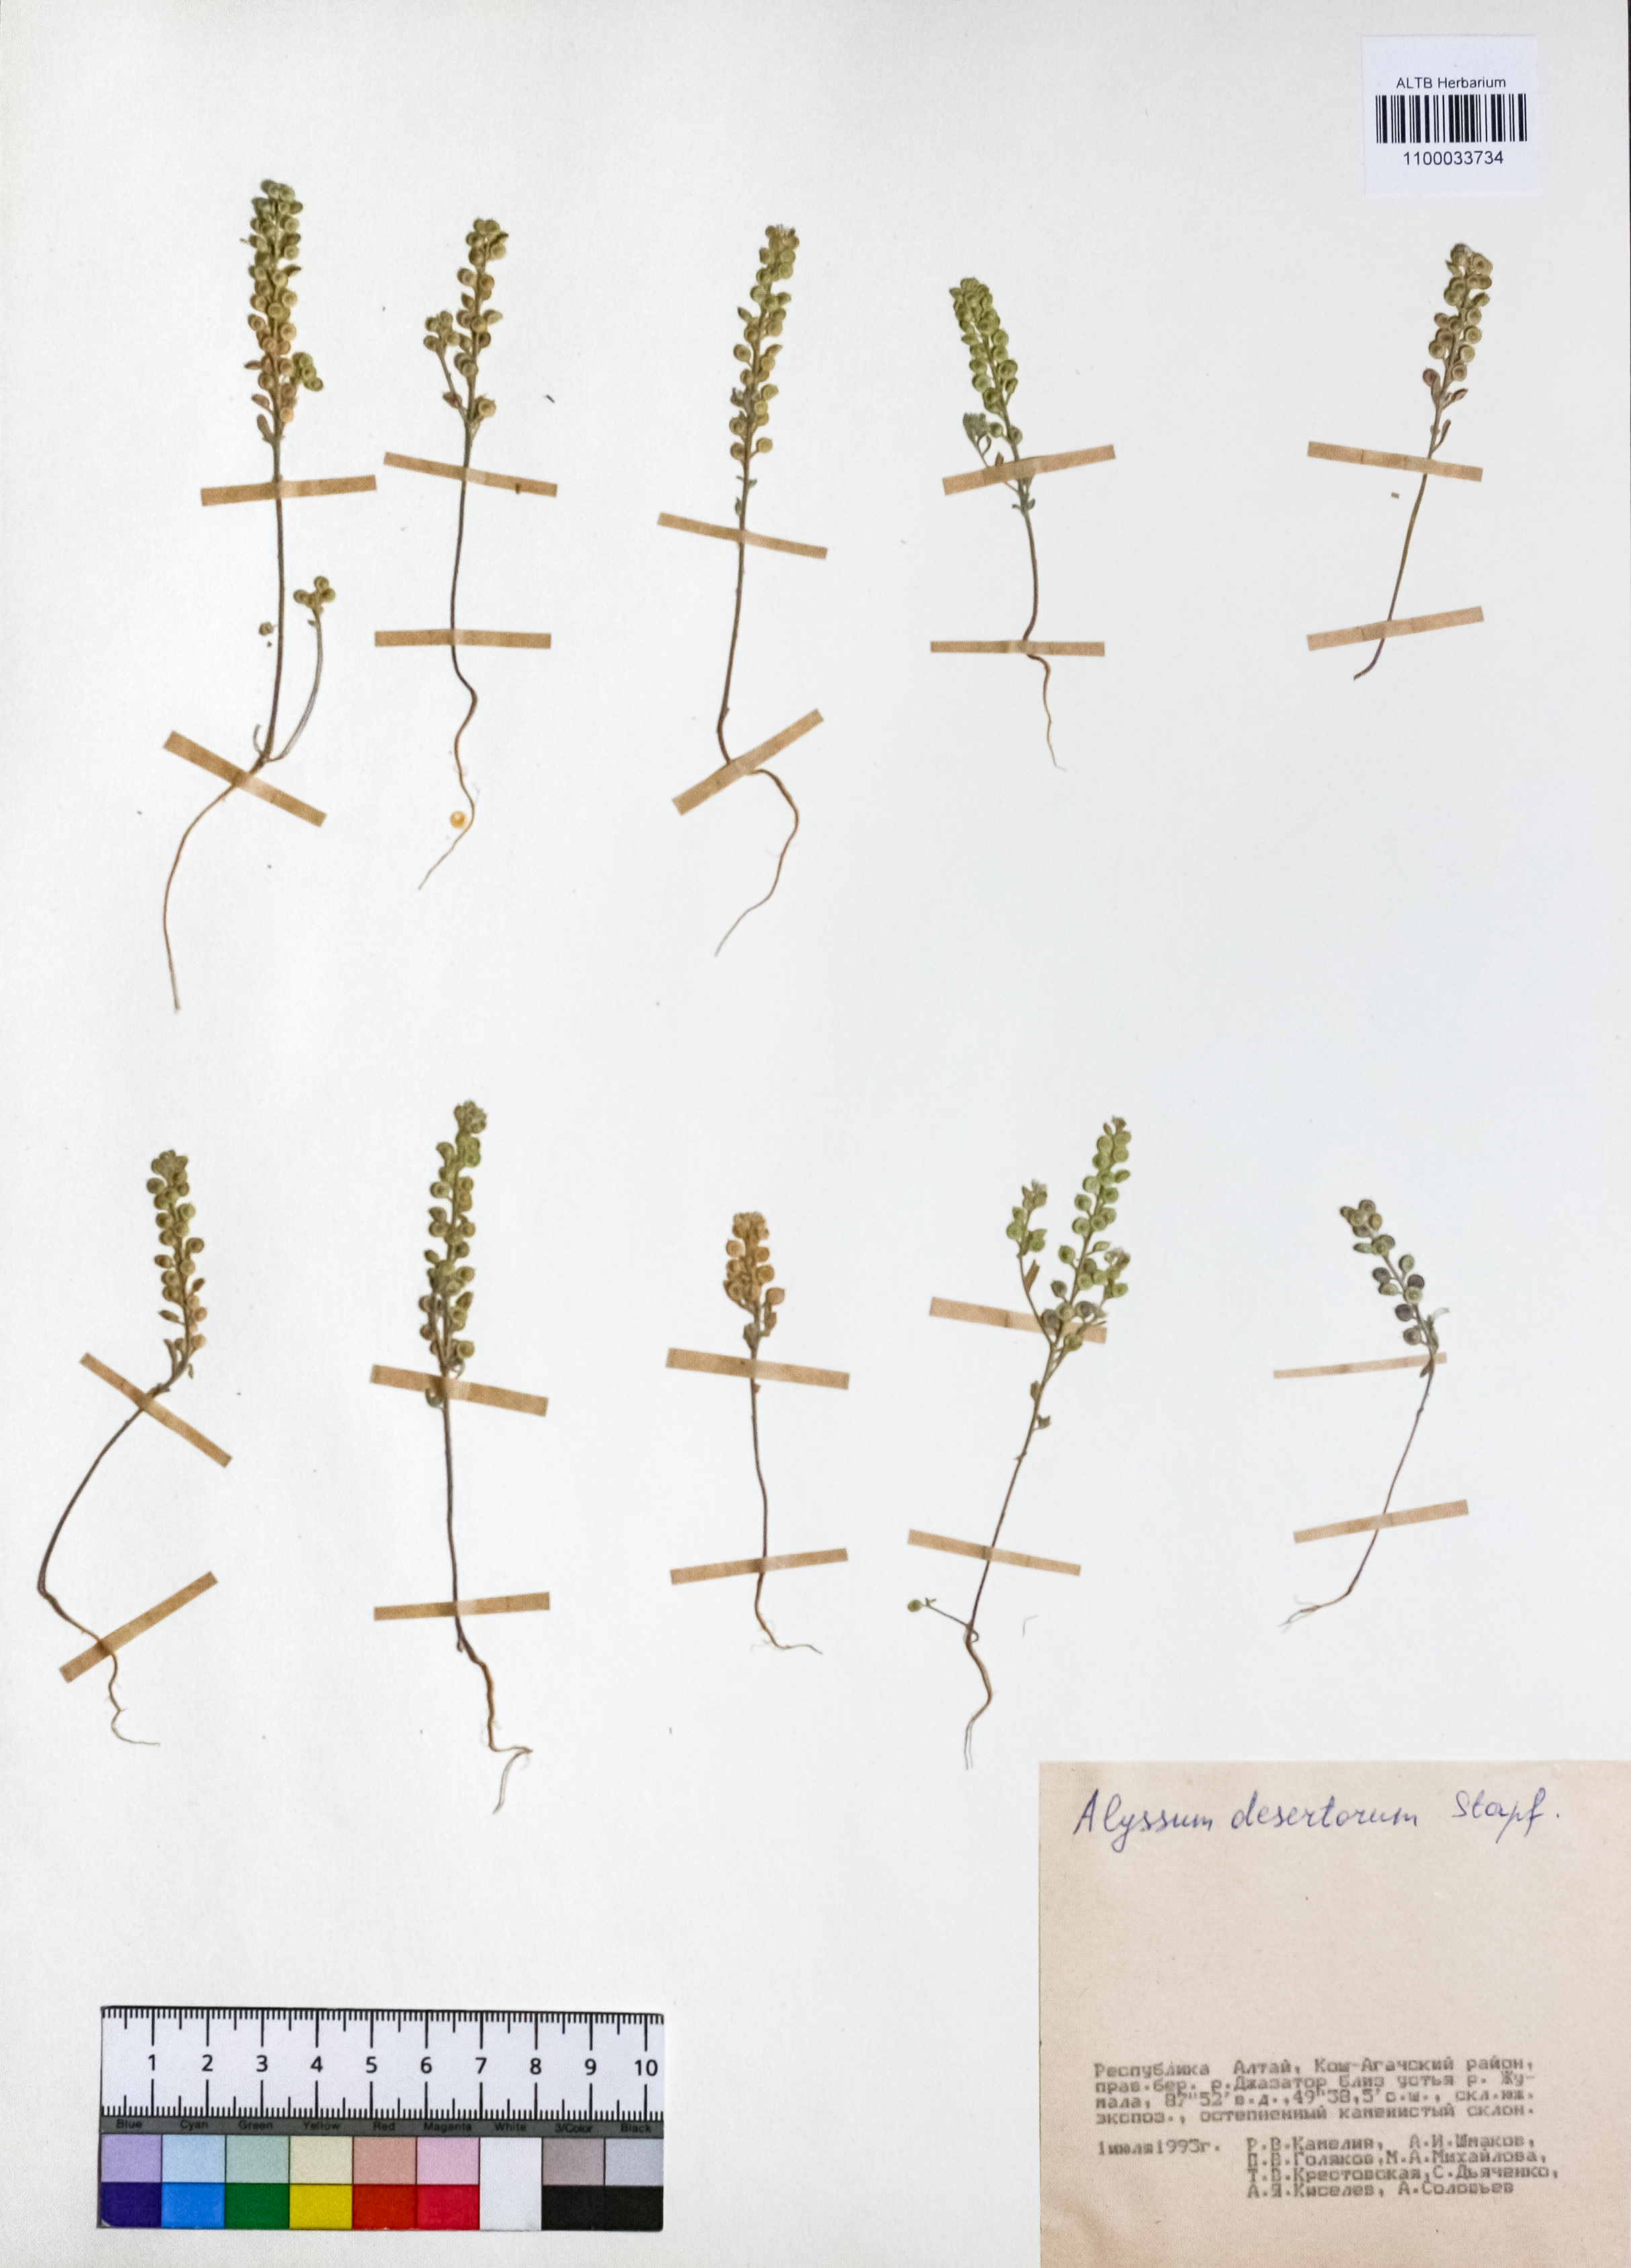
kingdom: Plantae
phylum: Tracheophyta
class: Magnoliopsida
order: Brassicales
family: Brassicaceae
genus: Alyssum
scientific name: Alyssum turkestanicum
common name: Desert alyssum
